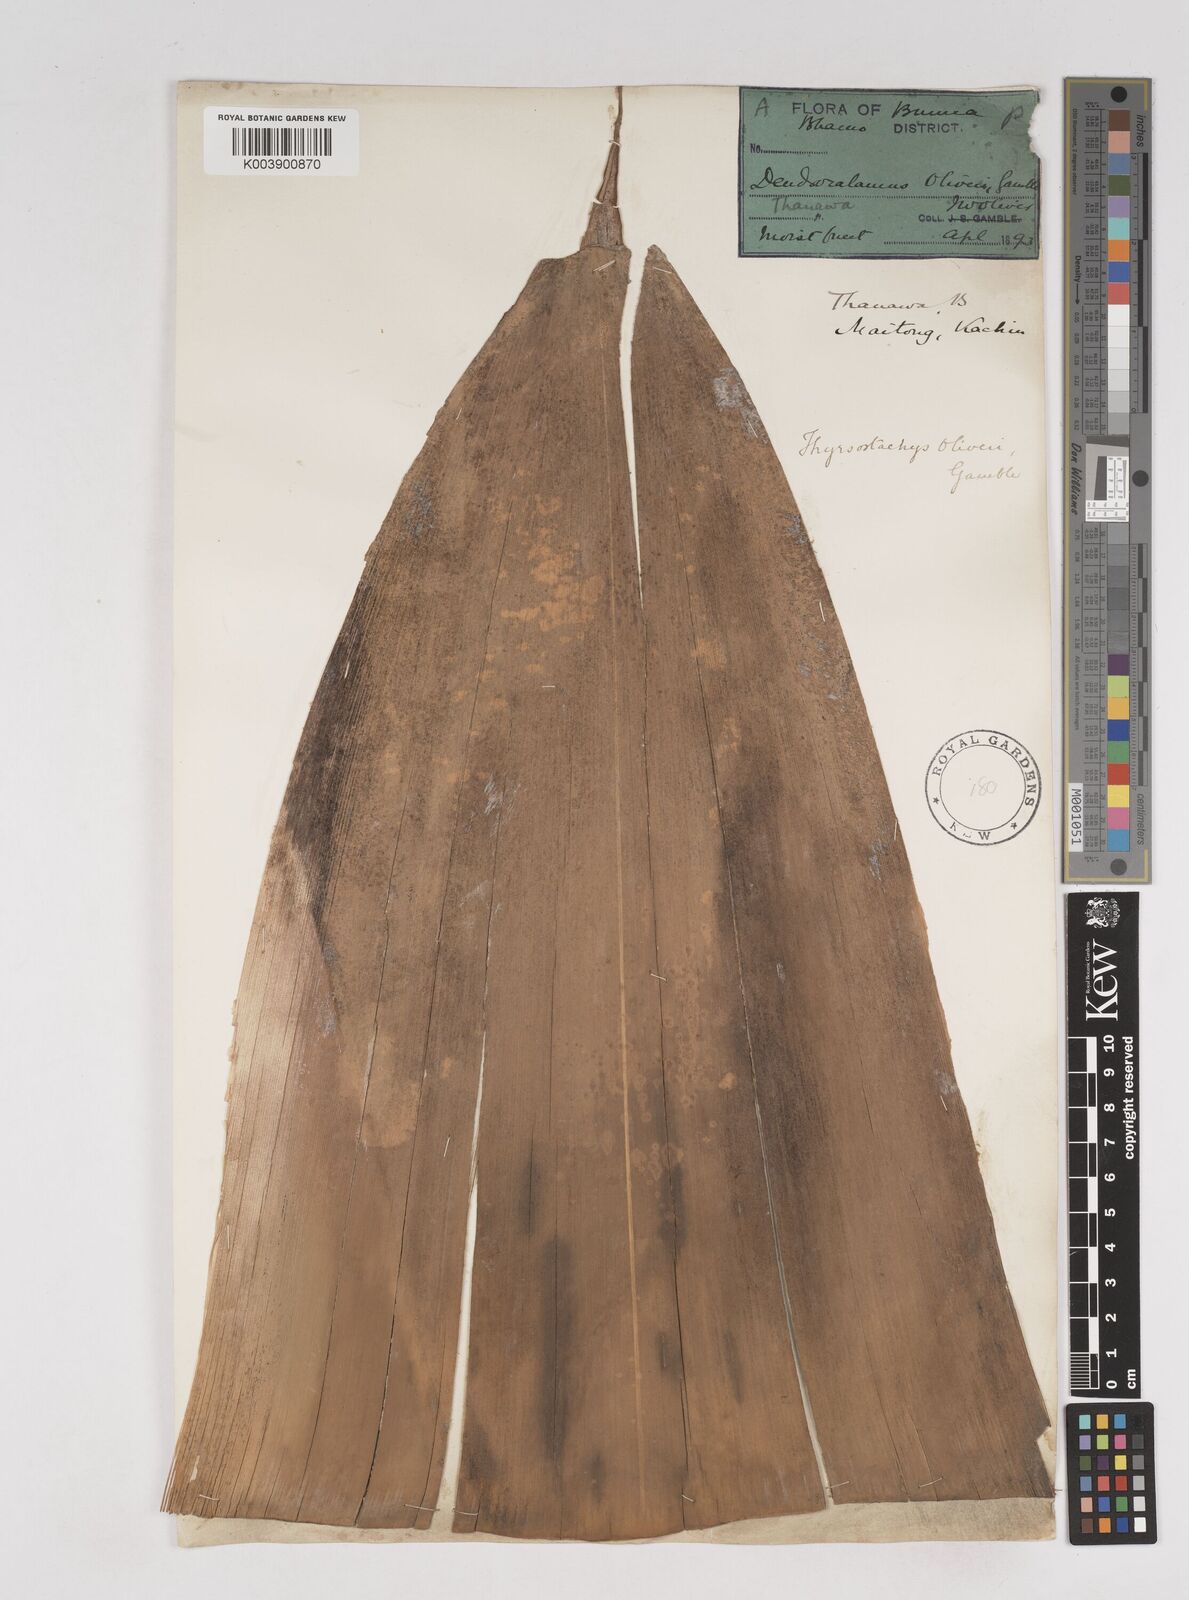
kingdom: Plantae
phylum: Tracheophyta
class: Liliopsida
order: Poales
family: Poaceae
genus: Thyrsostachys
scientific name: Thyrsostachys oliveri
